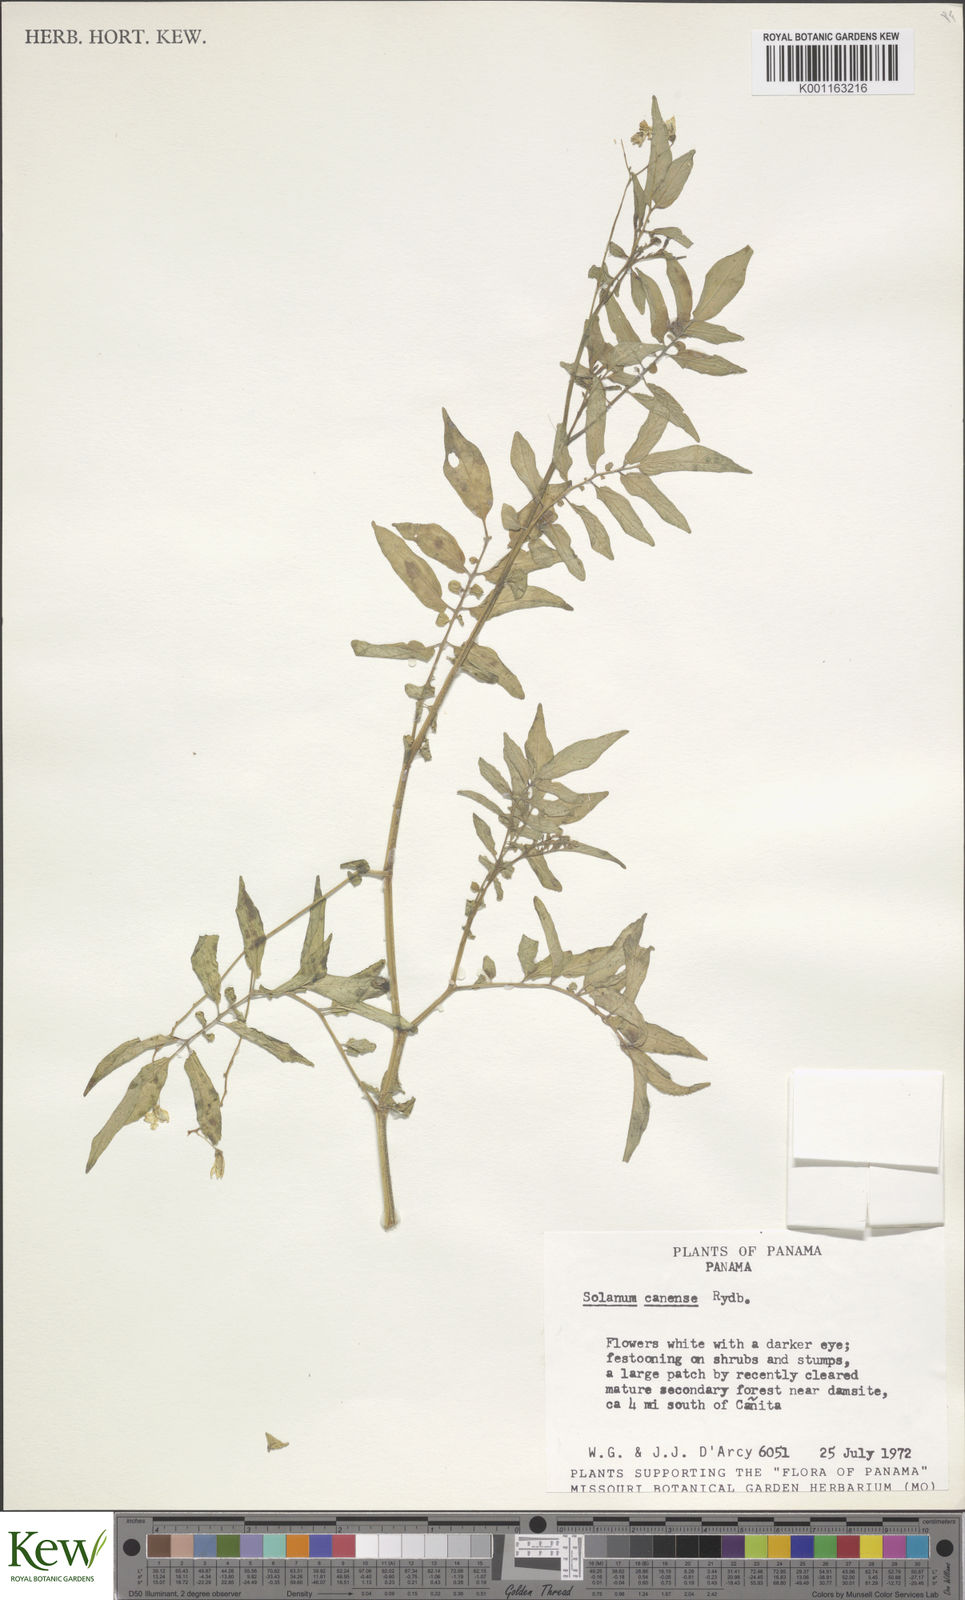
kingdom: Plantae
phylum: Tracheophyta
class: Magnoliopsida
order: Solanales
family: Solanaceae
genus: Solanum
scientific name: Solanum canense
